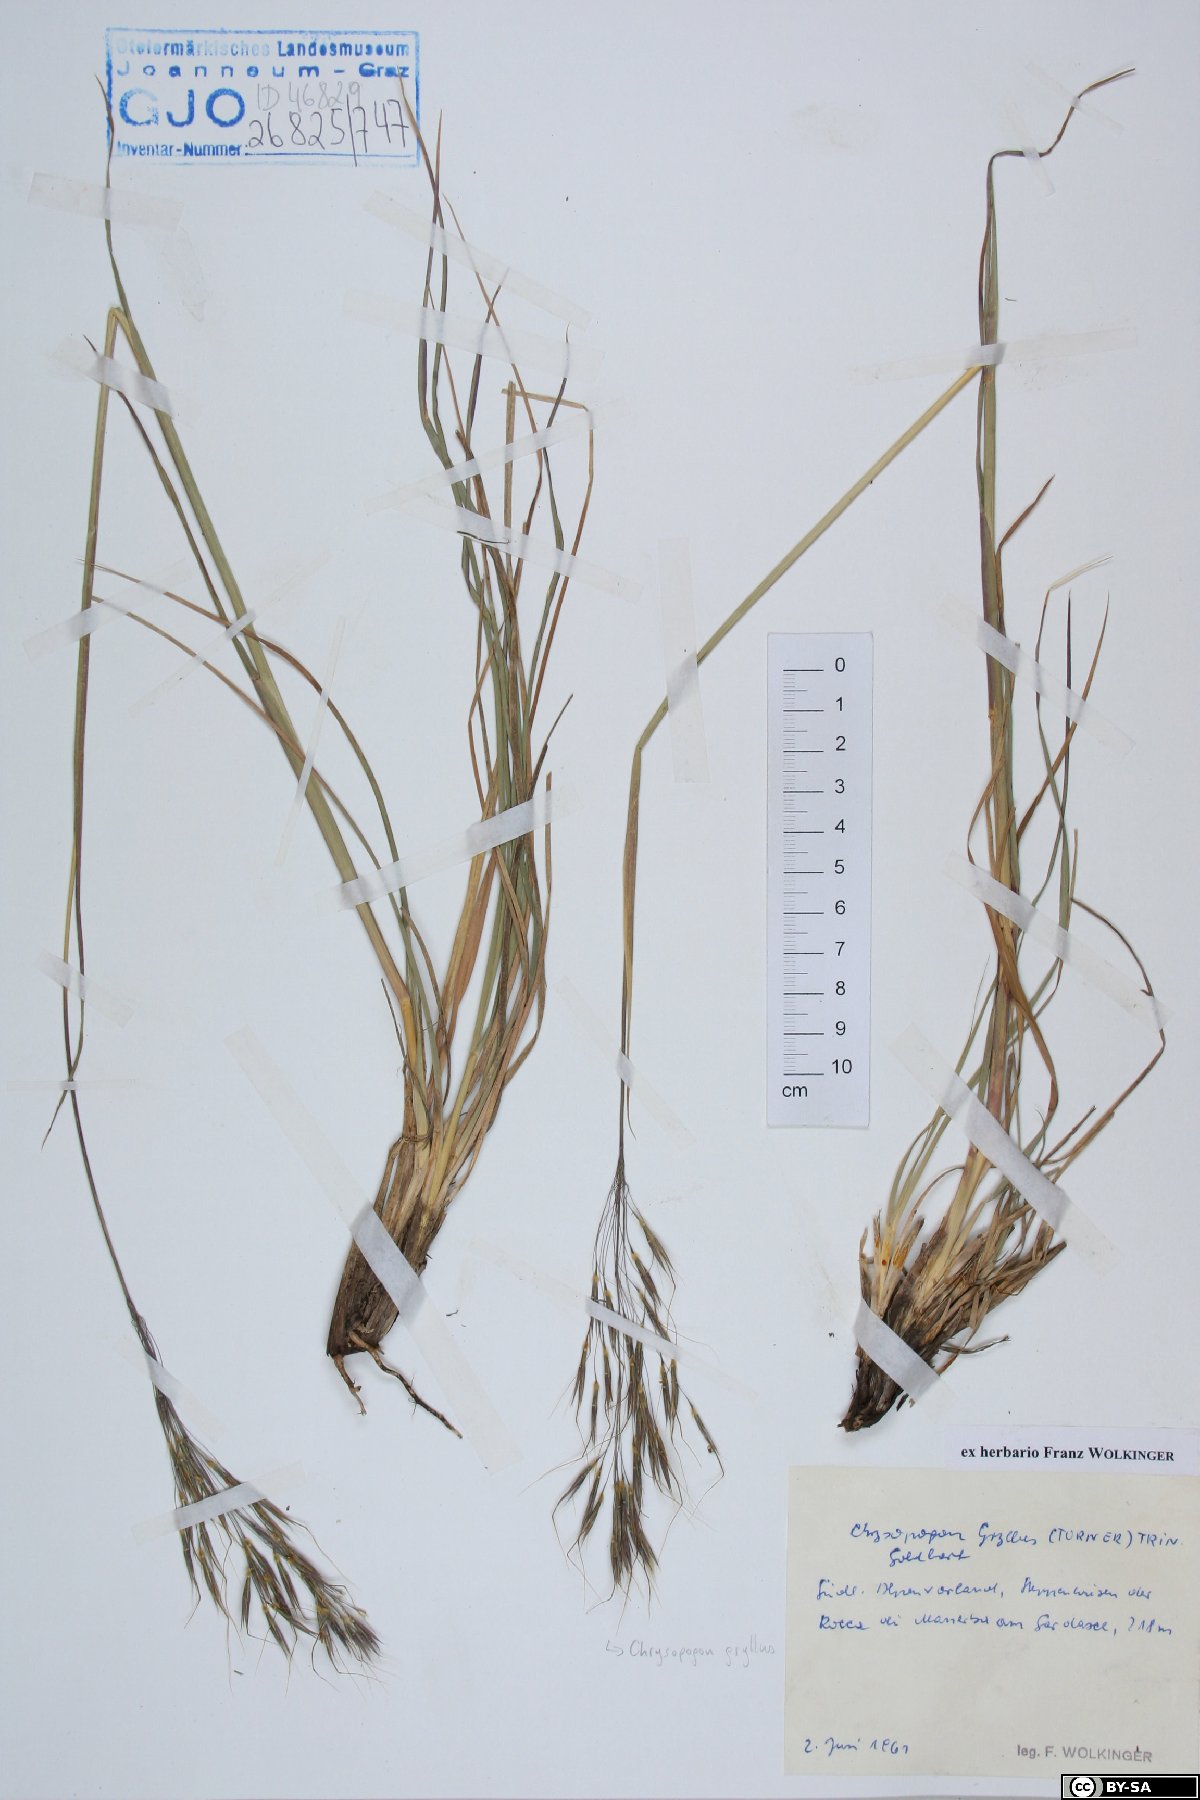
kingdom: Plantae
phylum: Tracheophyta
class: Liliopsida
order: Poales
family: Poaceae
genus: Chrysopogon
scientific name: Chrysopogon gryllus
